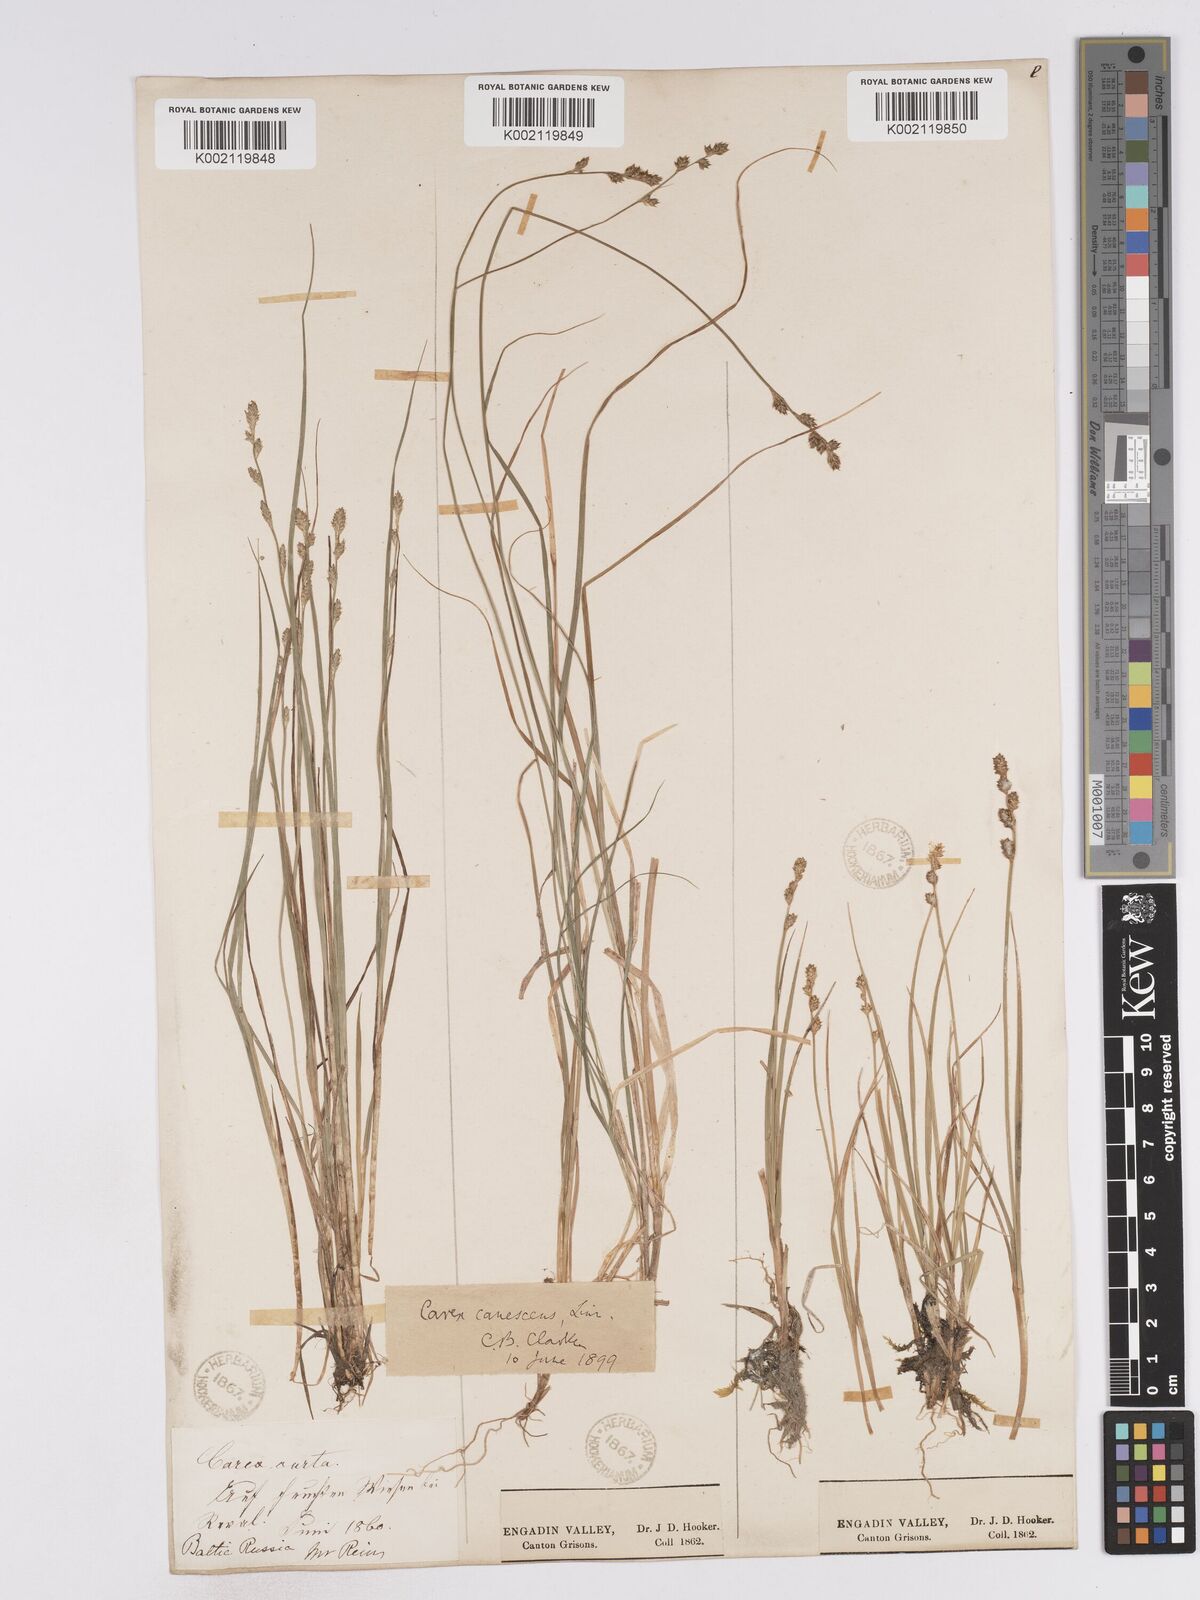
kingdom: Plantae
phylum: Tracheophyta
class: Liliopsida
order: Poales
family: Cyperaceae
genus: Carex
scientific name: Carex curta
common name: White sedge
